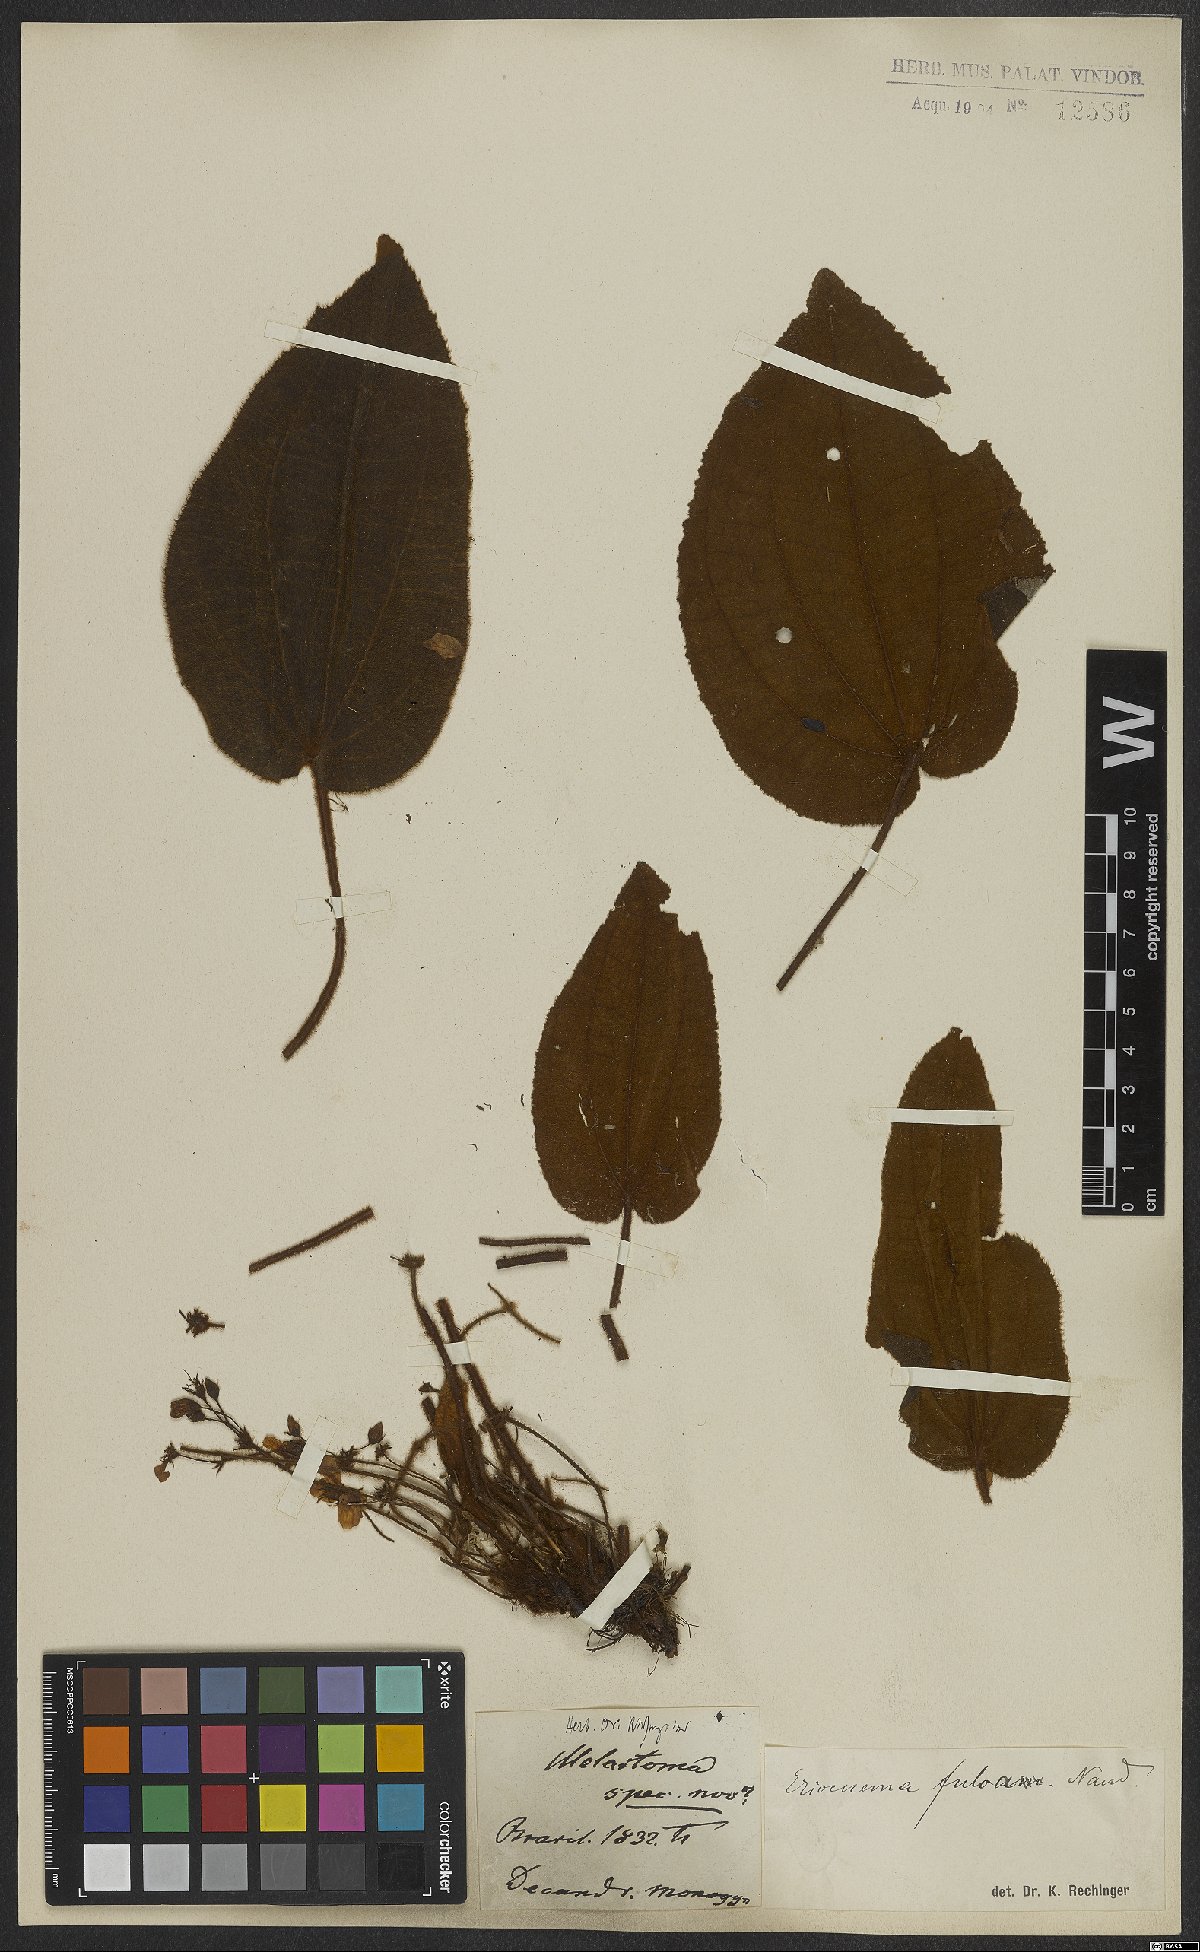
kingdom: Plantae
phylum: Tracheophyta
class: Magnoliopsida
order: Myrtales
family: Melastomataceae
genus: Eriocnema
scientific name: Eriocnema fulva
